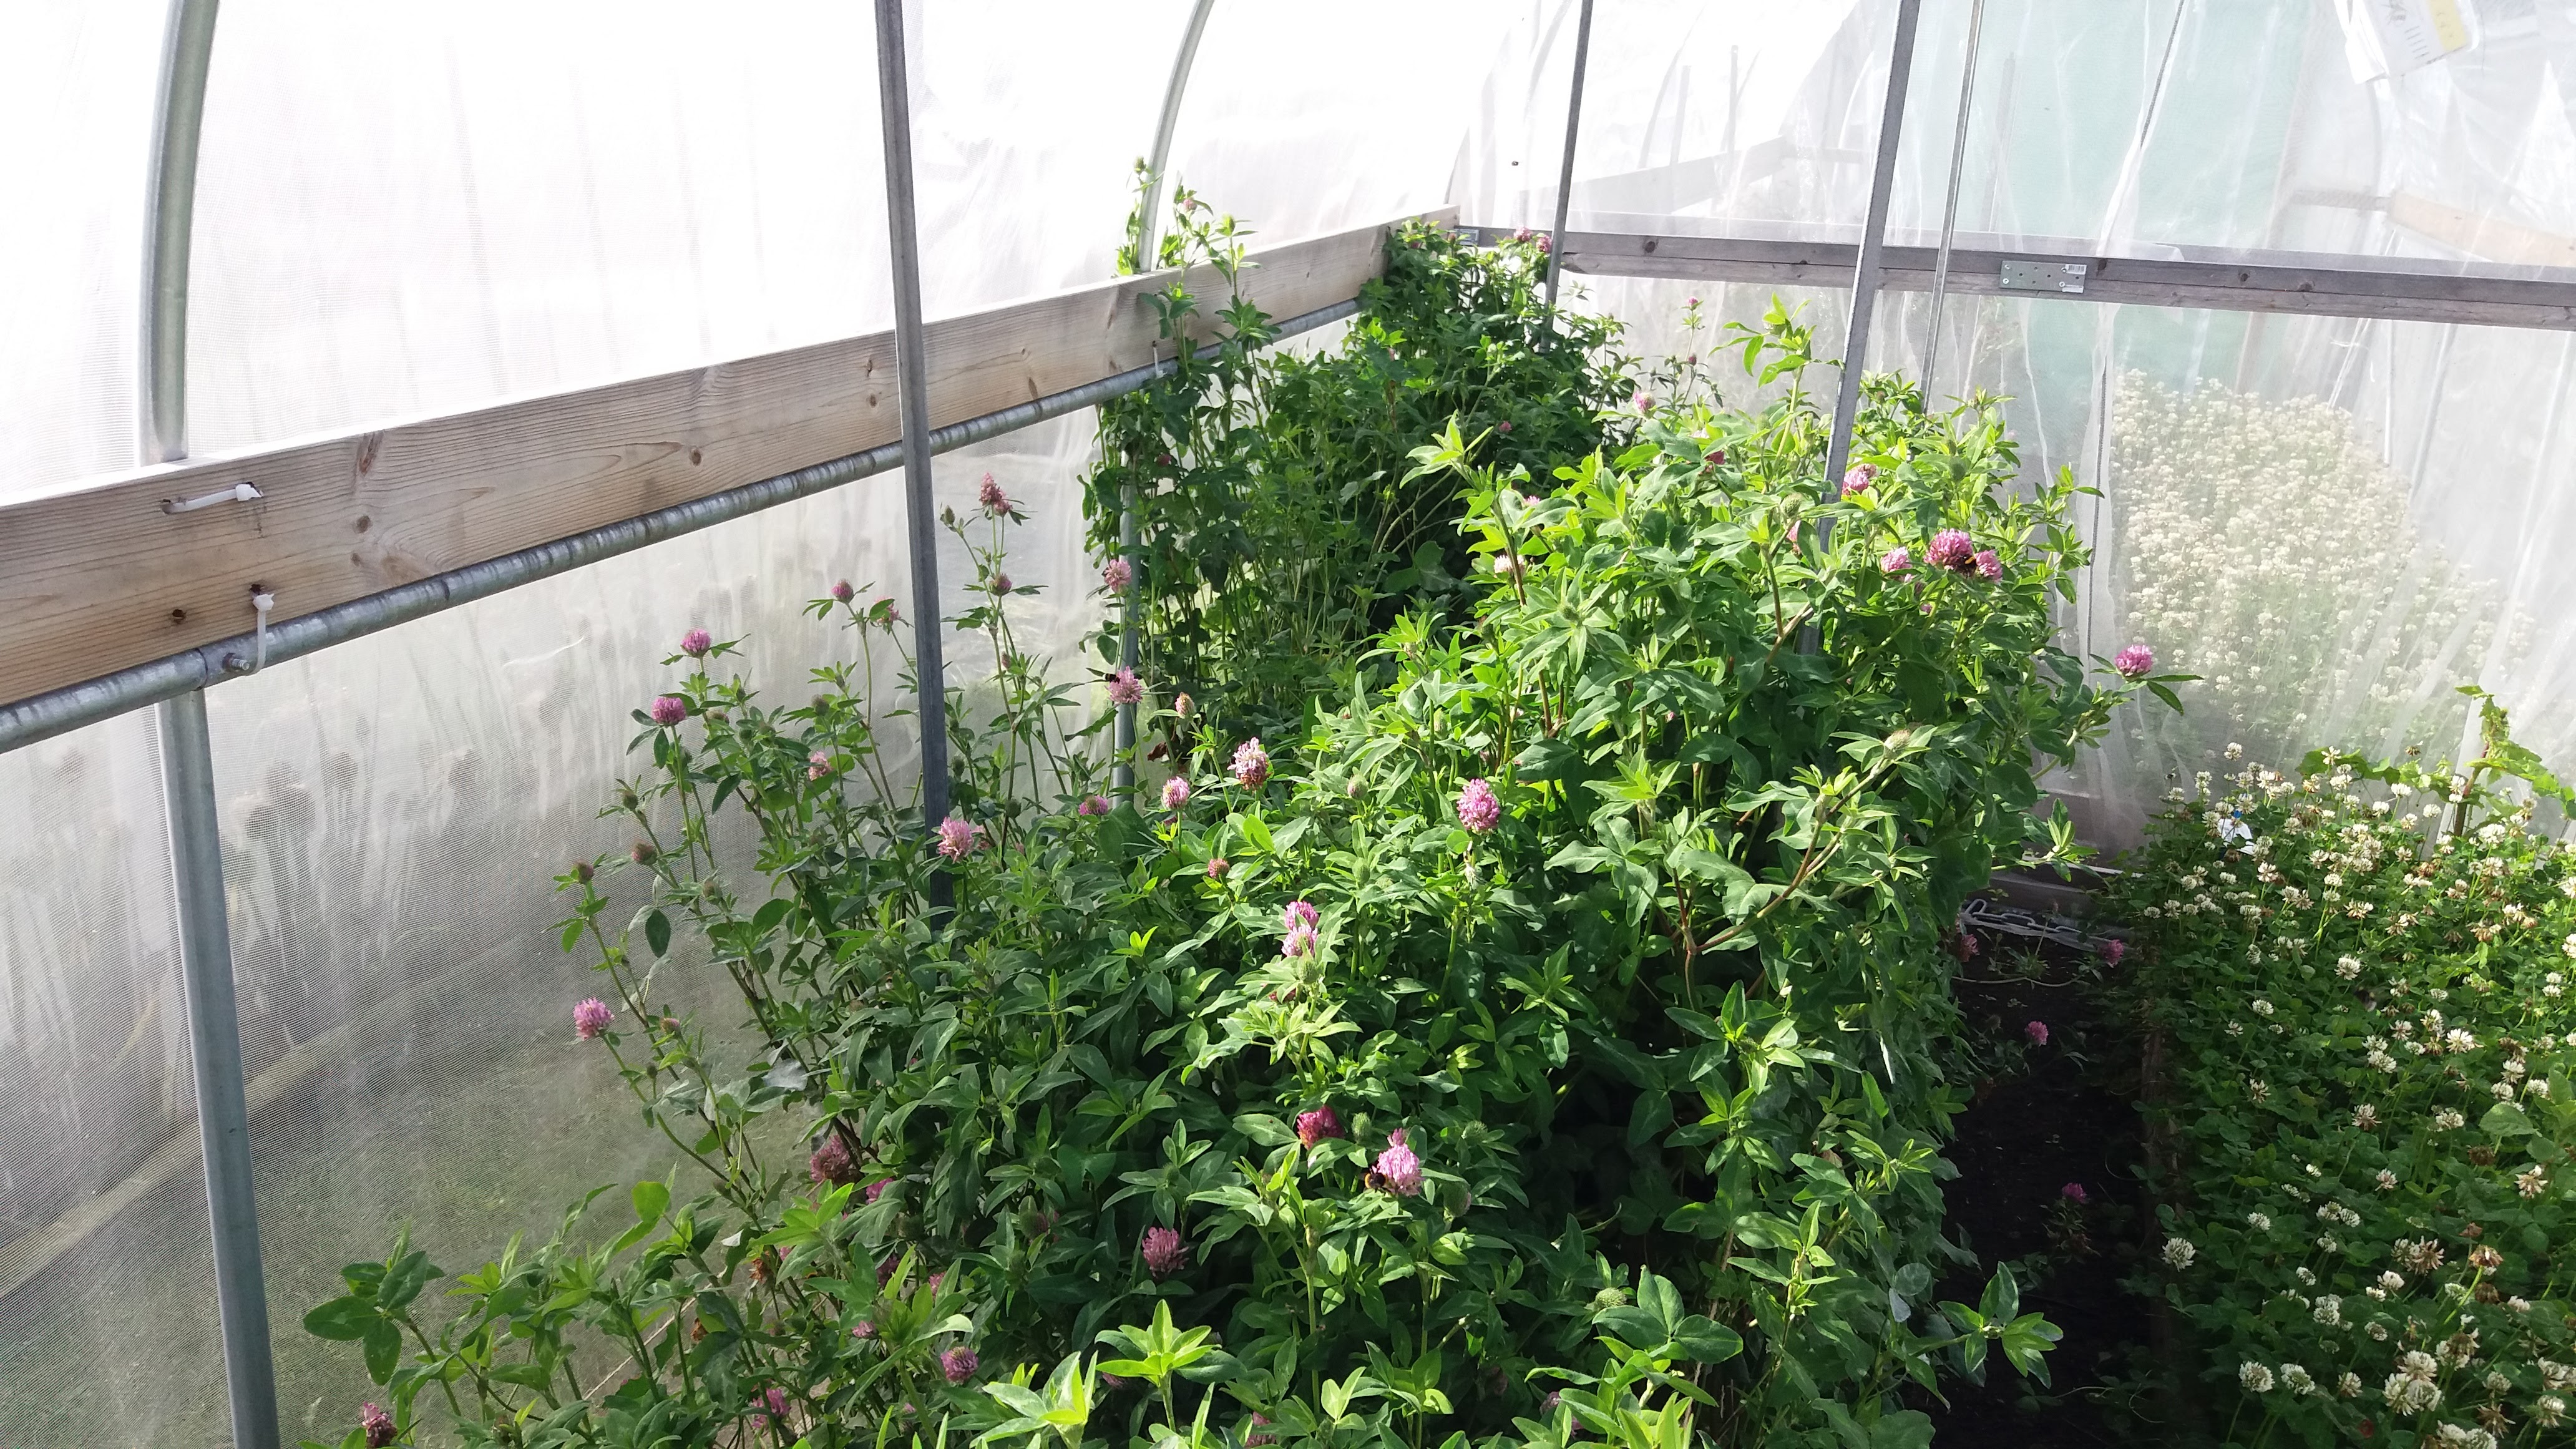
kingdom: Plantae
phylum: Tracheophyta
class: Magnoliopsida
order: Fabales
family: Fabaceae
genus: Trifolium
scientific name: Trifolium pratense
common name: Red clover
